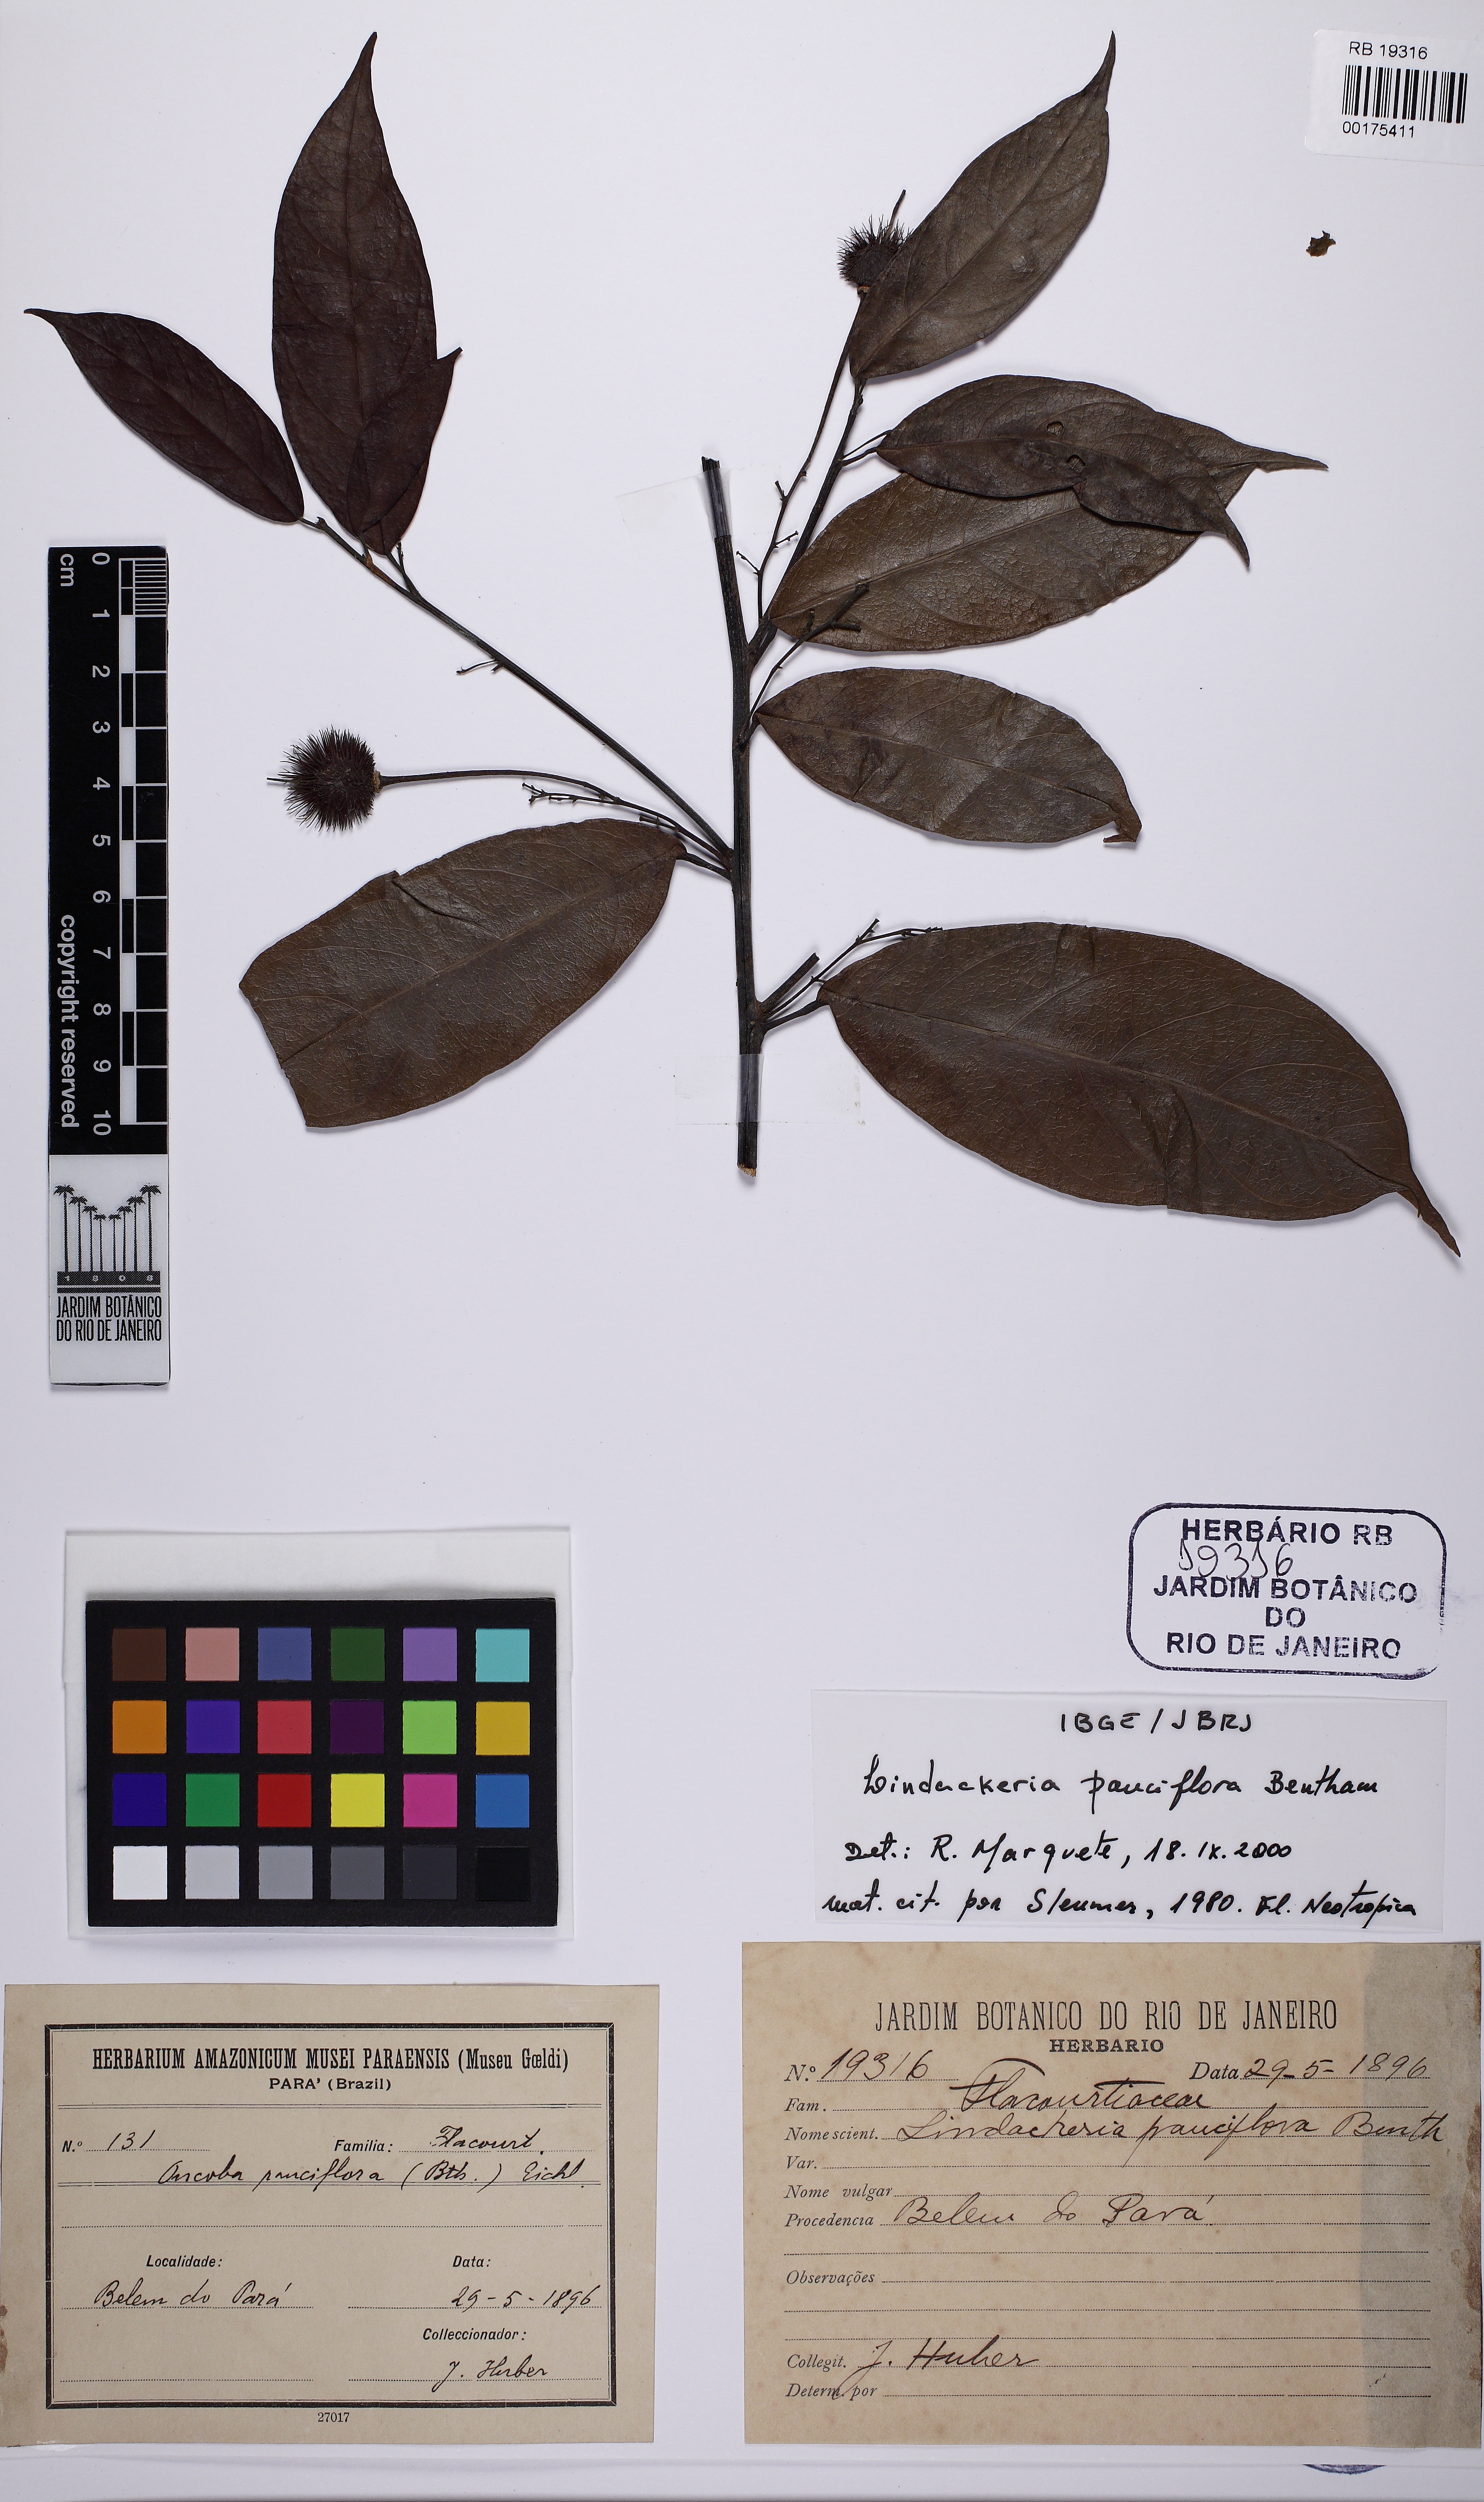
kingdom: Plantae
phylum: Tracheophyta
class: Magnoliopsida
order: Malpighiales
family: Achariaceae
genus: Lindackeria
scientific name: Lindackeria pauciflora
